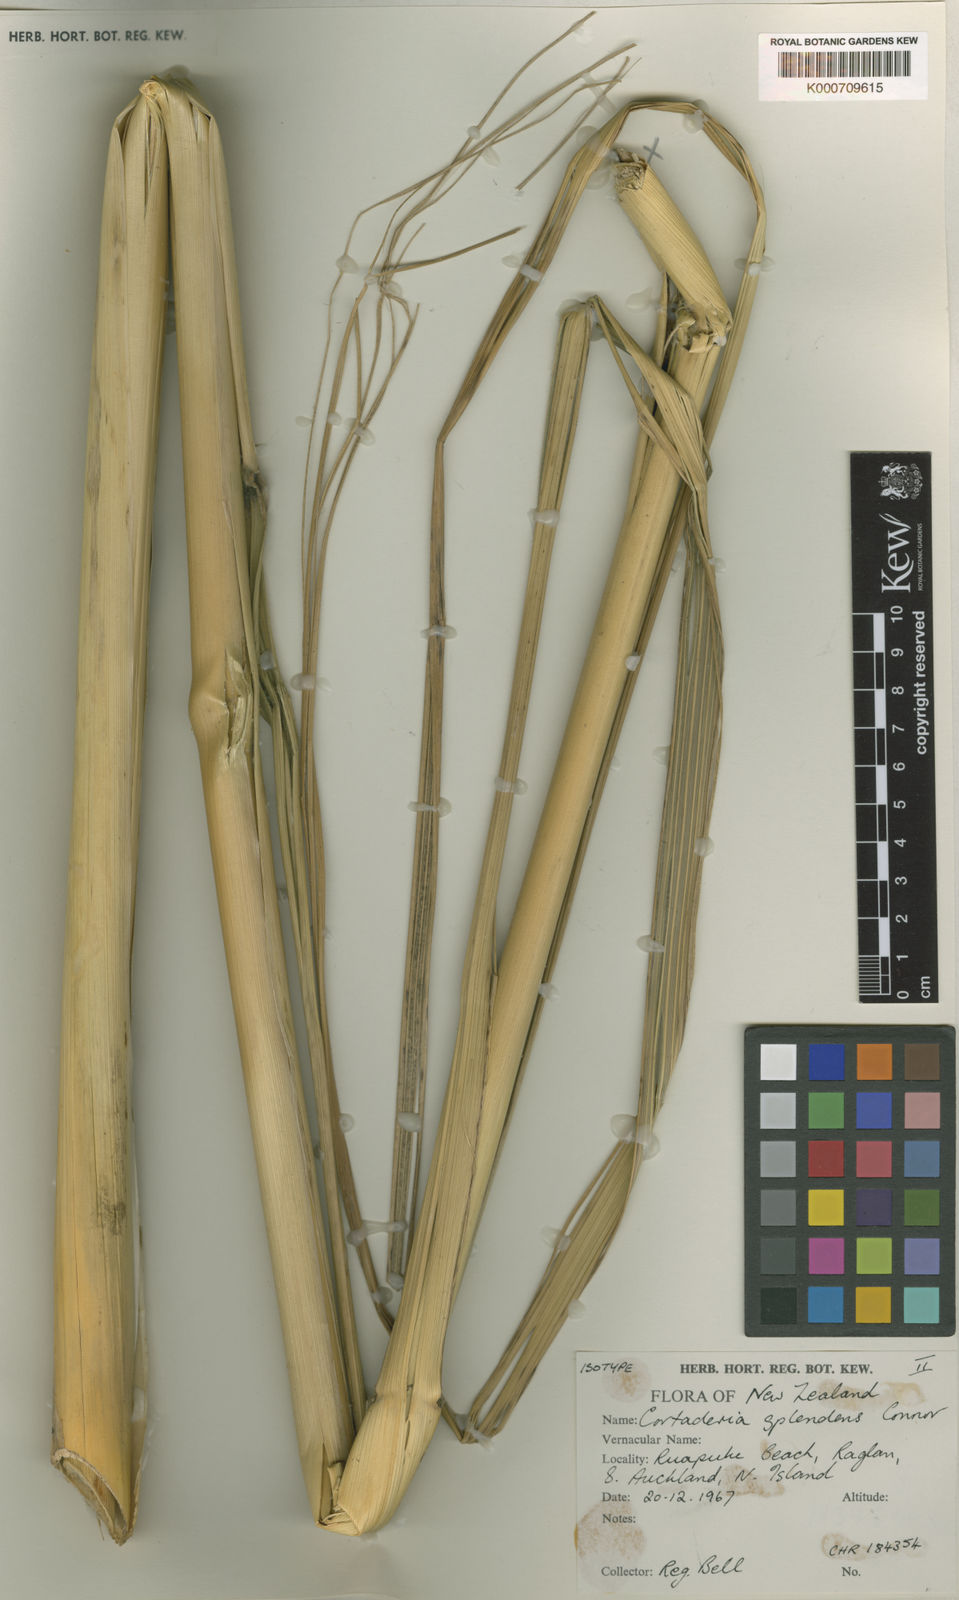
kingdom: Plantae
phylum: Tracheophyta
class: Liliopsida
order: Poales
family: Poaceae
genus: Austroderia
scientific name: Austroderia splendens
